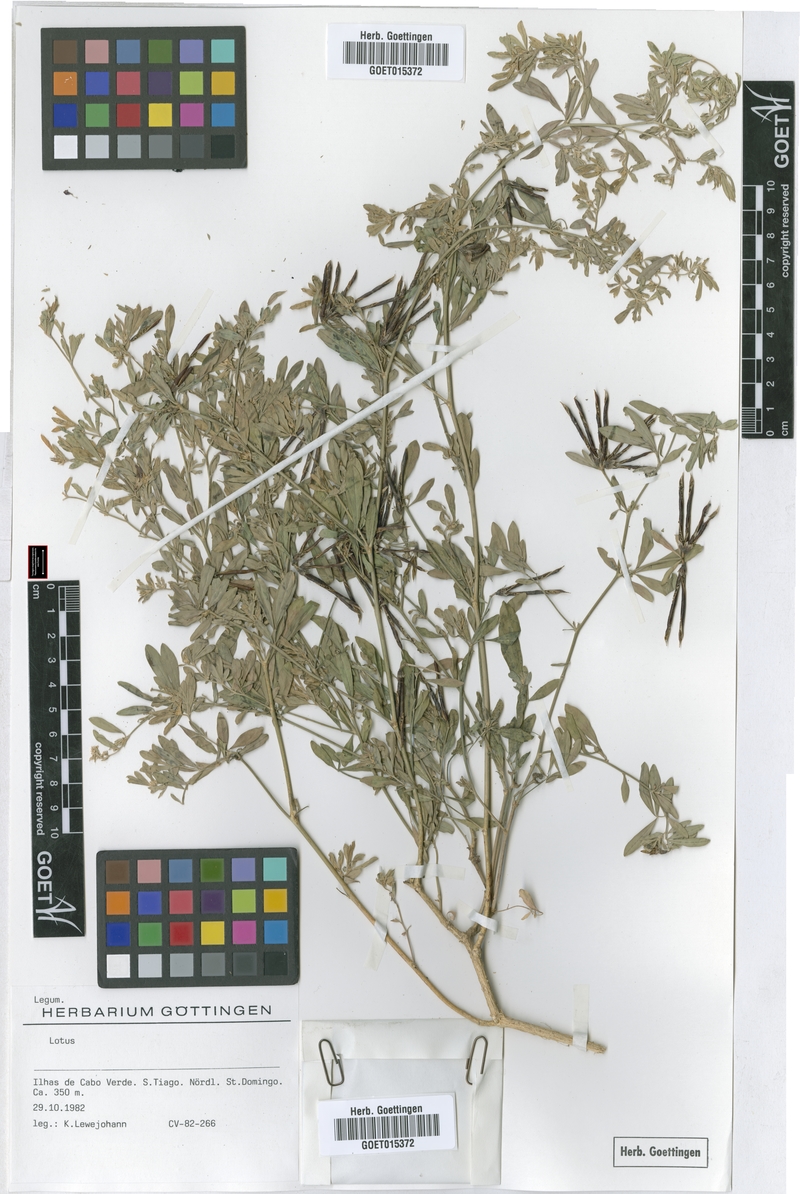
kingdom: Plantae
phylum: Tracheophyta
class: Magnoliopsida
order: Fabales
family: Fabaceae
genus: Lotus
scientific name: Lotus
